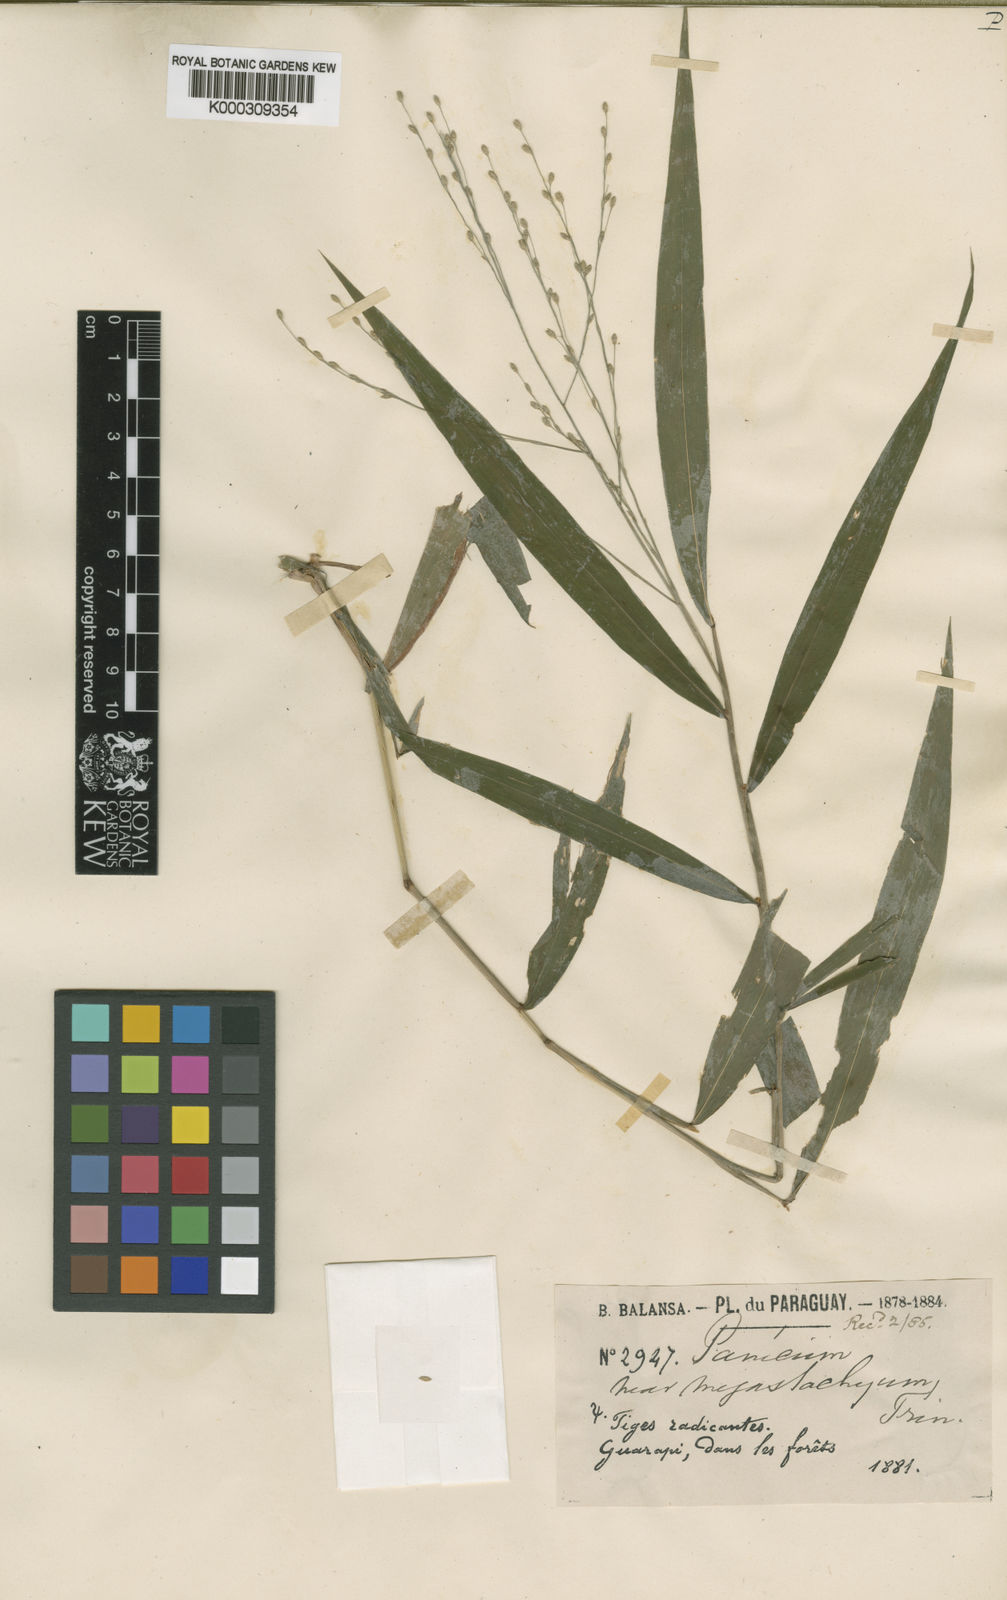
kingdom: Plantae
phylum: Tracheophyta
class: Liliopsida
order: Poales
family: Poaceae
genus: Acroceras
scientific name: Acroceras excavatum
